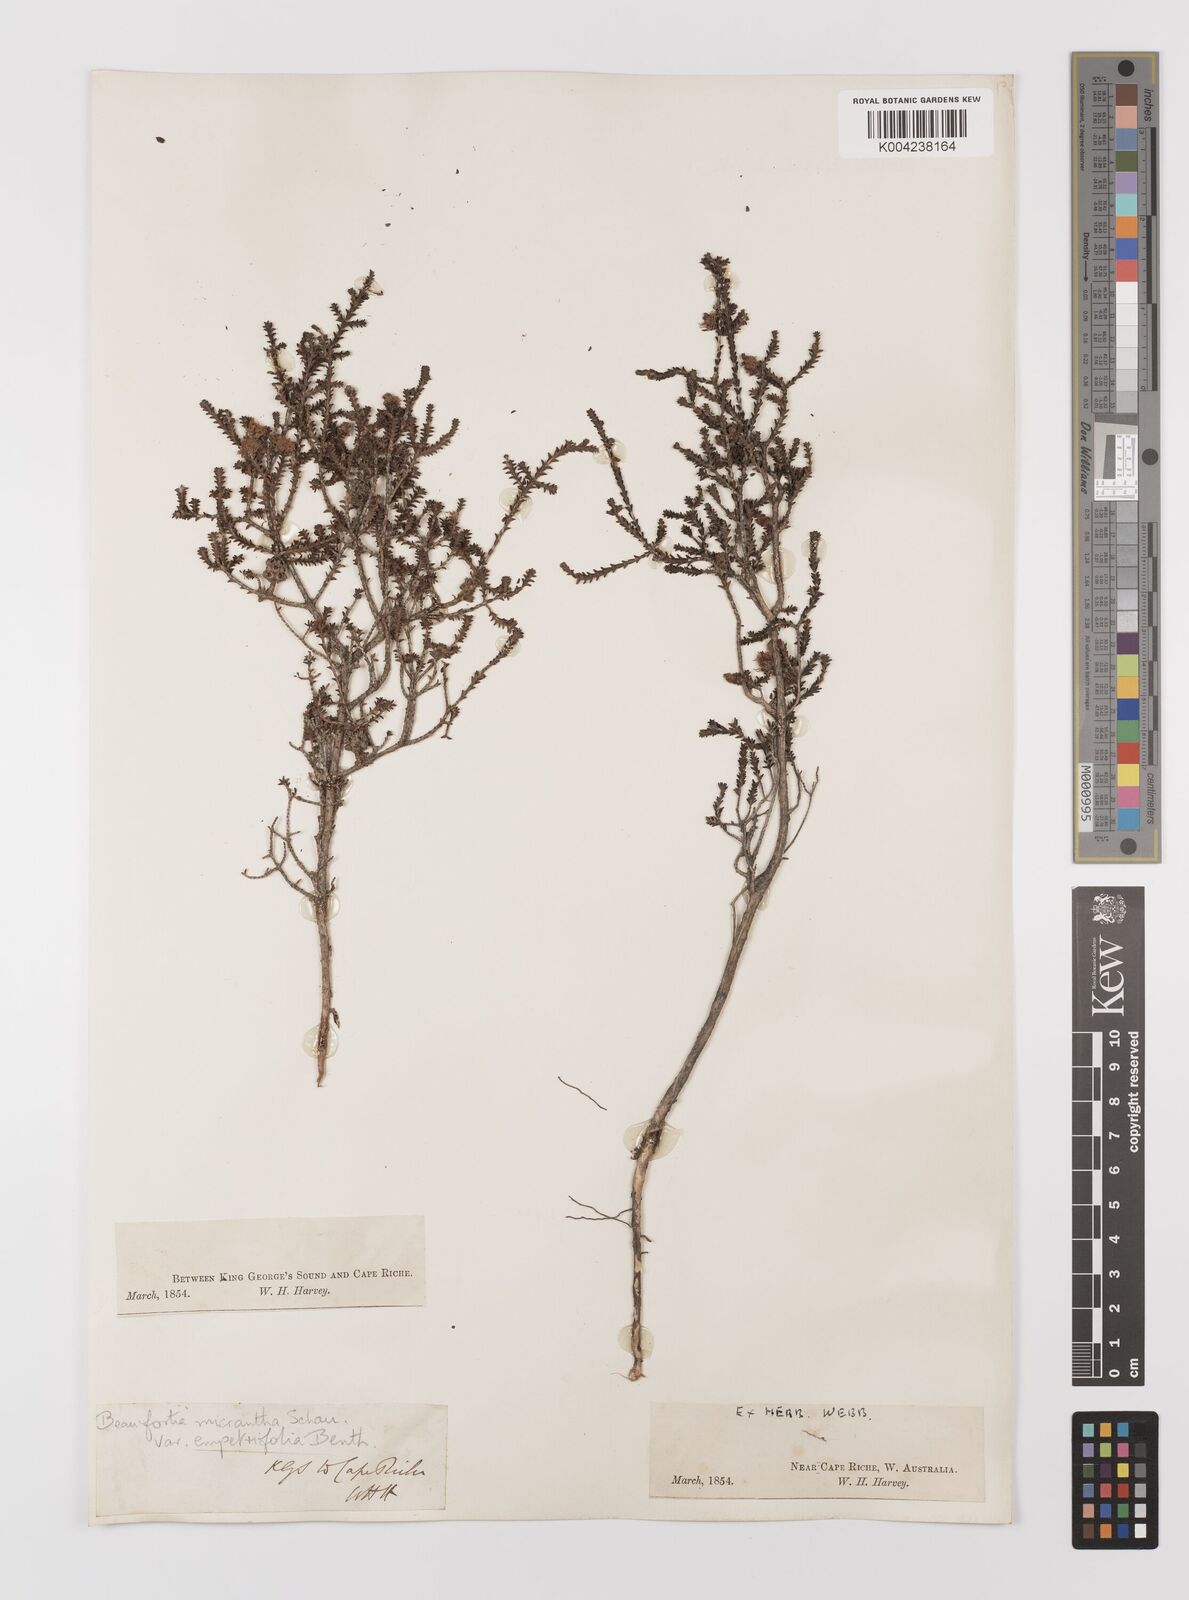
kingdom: Plantae
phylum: Tracheophyta
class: Magnoliopsida
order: Myrtales
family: Myrtaceae
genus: Melaleuca
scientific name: Melaleuca empetrifolia
